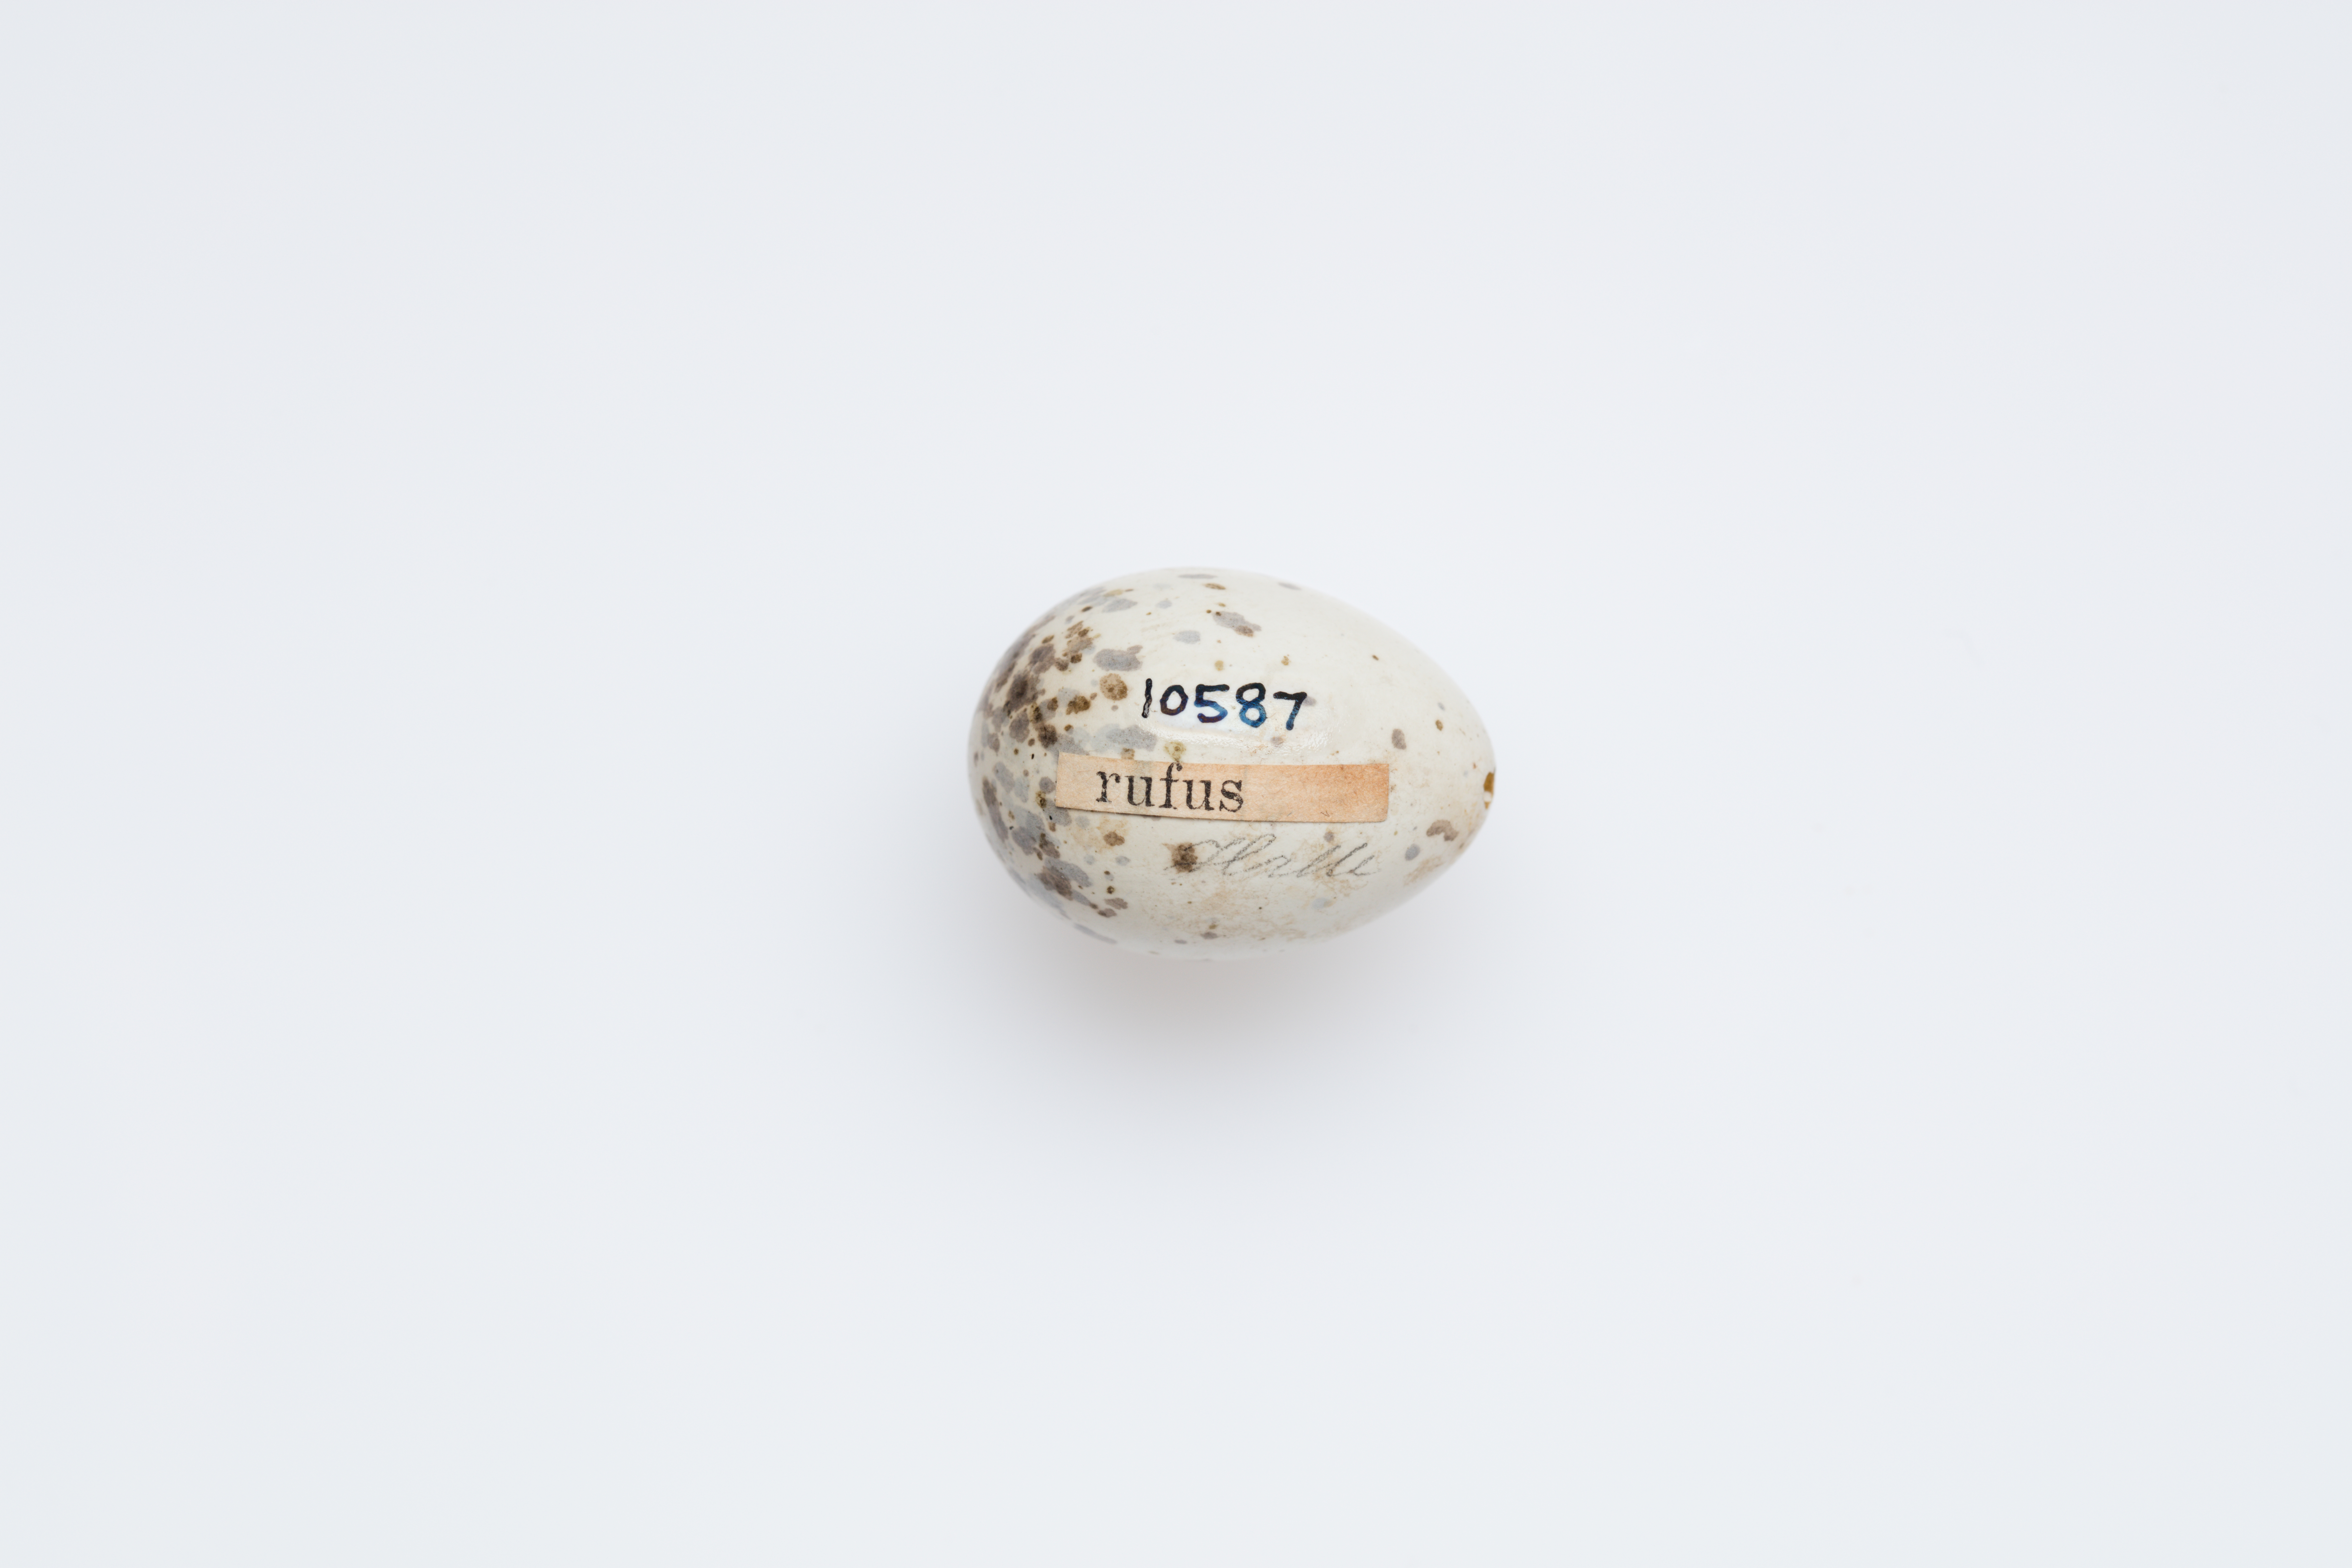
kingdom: Animalia
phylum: Chordata
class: Aves
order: Passeriformes
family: Laniidae
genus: Lanius
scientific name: Lanius senator
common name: Woodchat shrike
